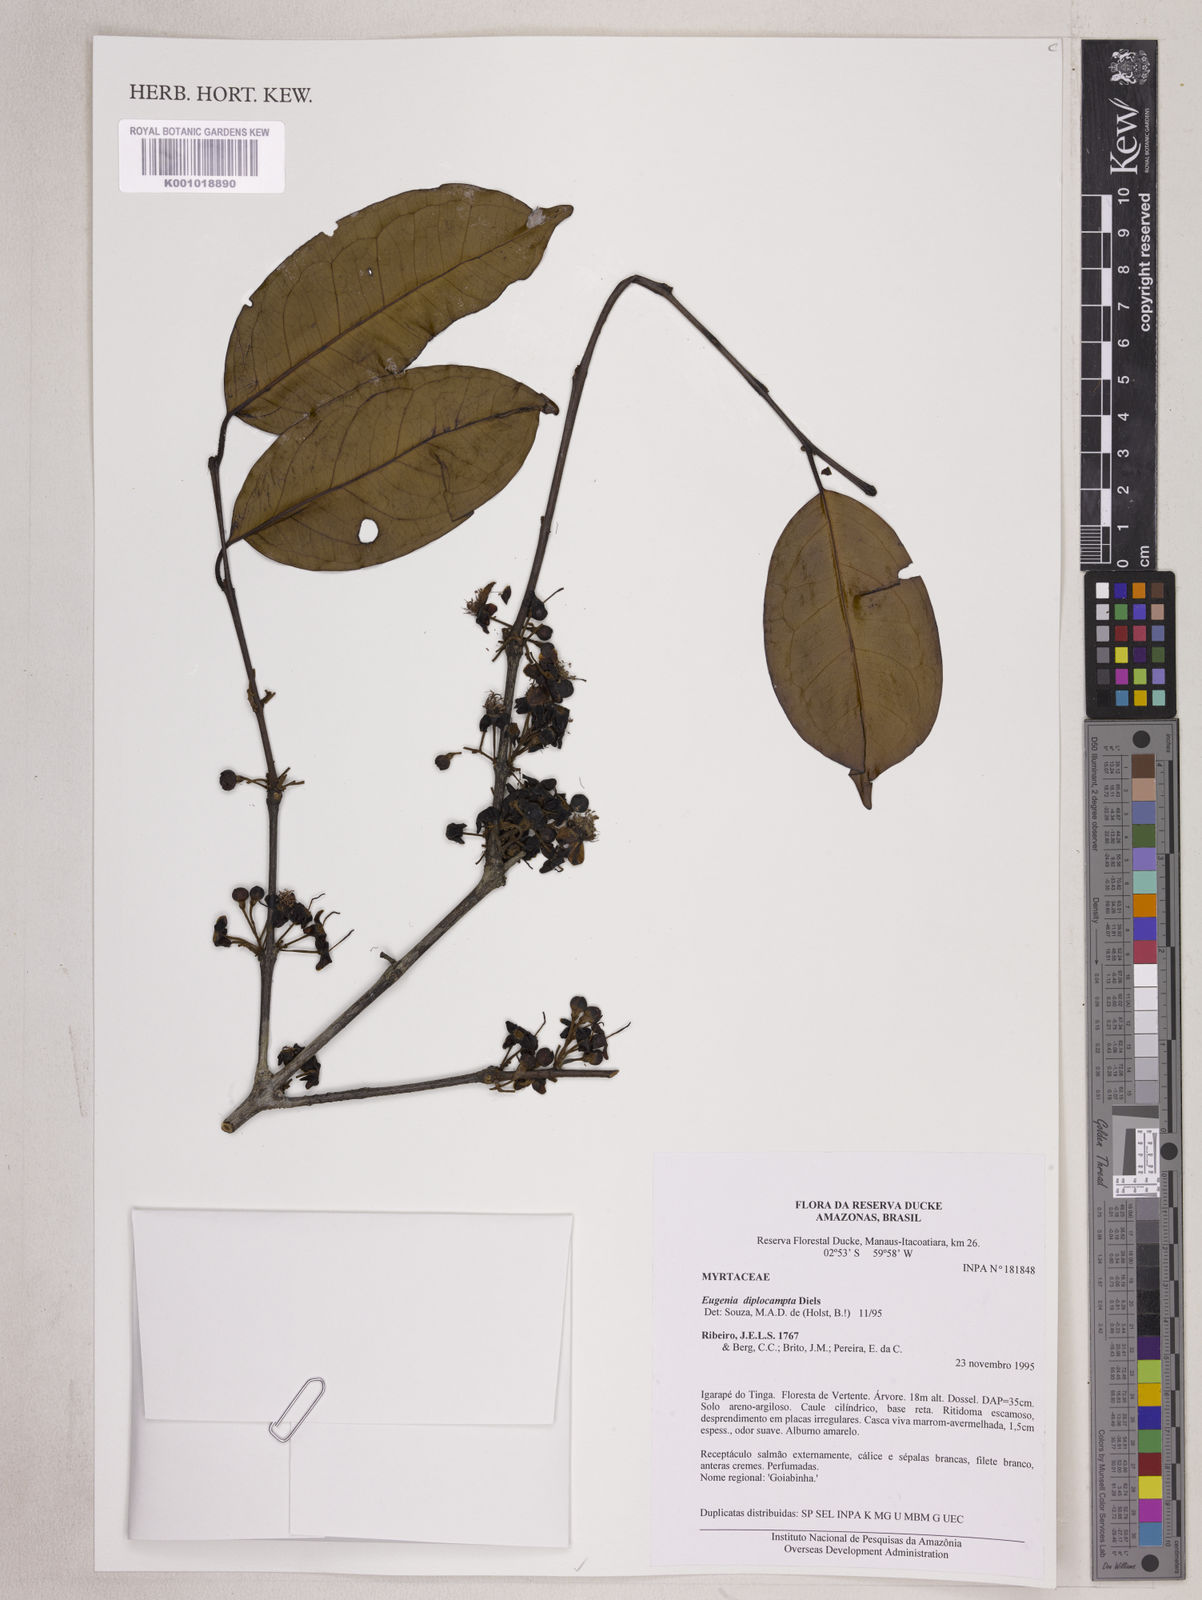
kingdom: Plantae
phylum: Tracheophyta
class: Magnoliopsida
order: Myrtales
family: Myrtaceae
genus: Eugenia
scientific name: Eugenia joseramosii
